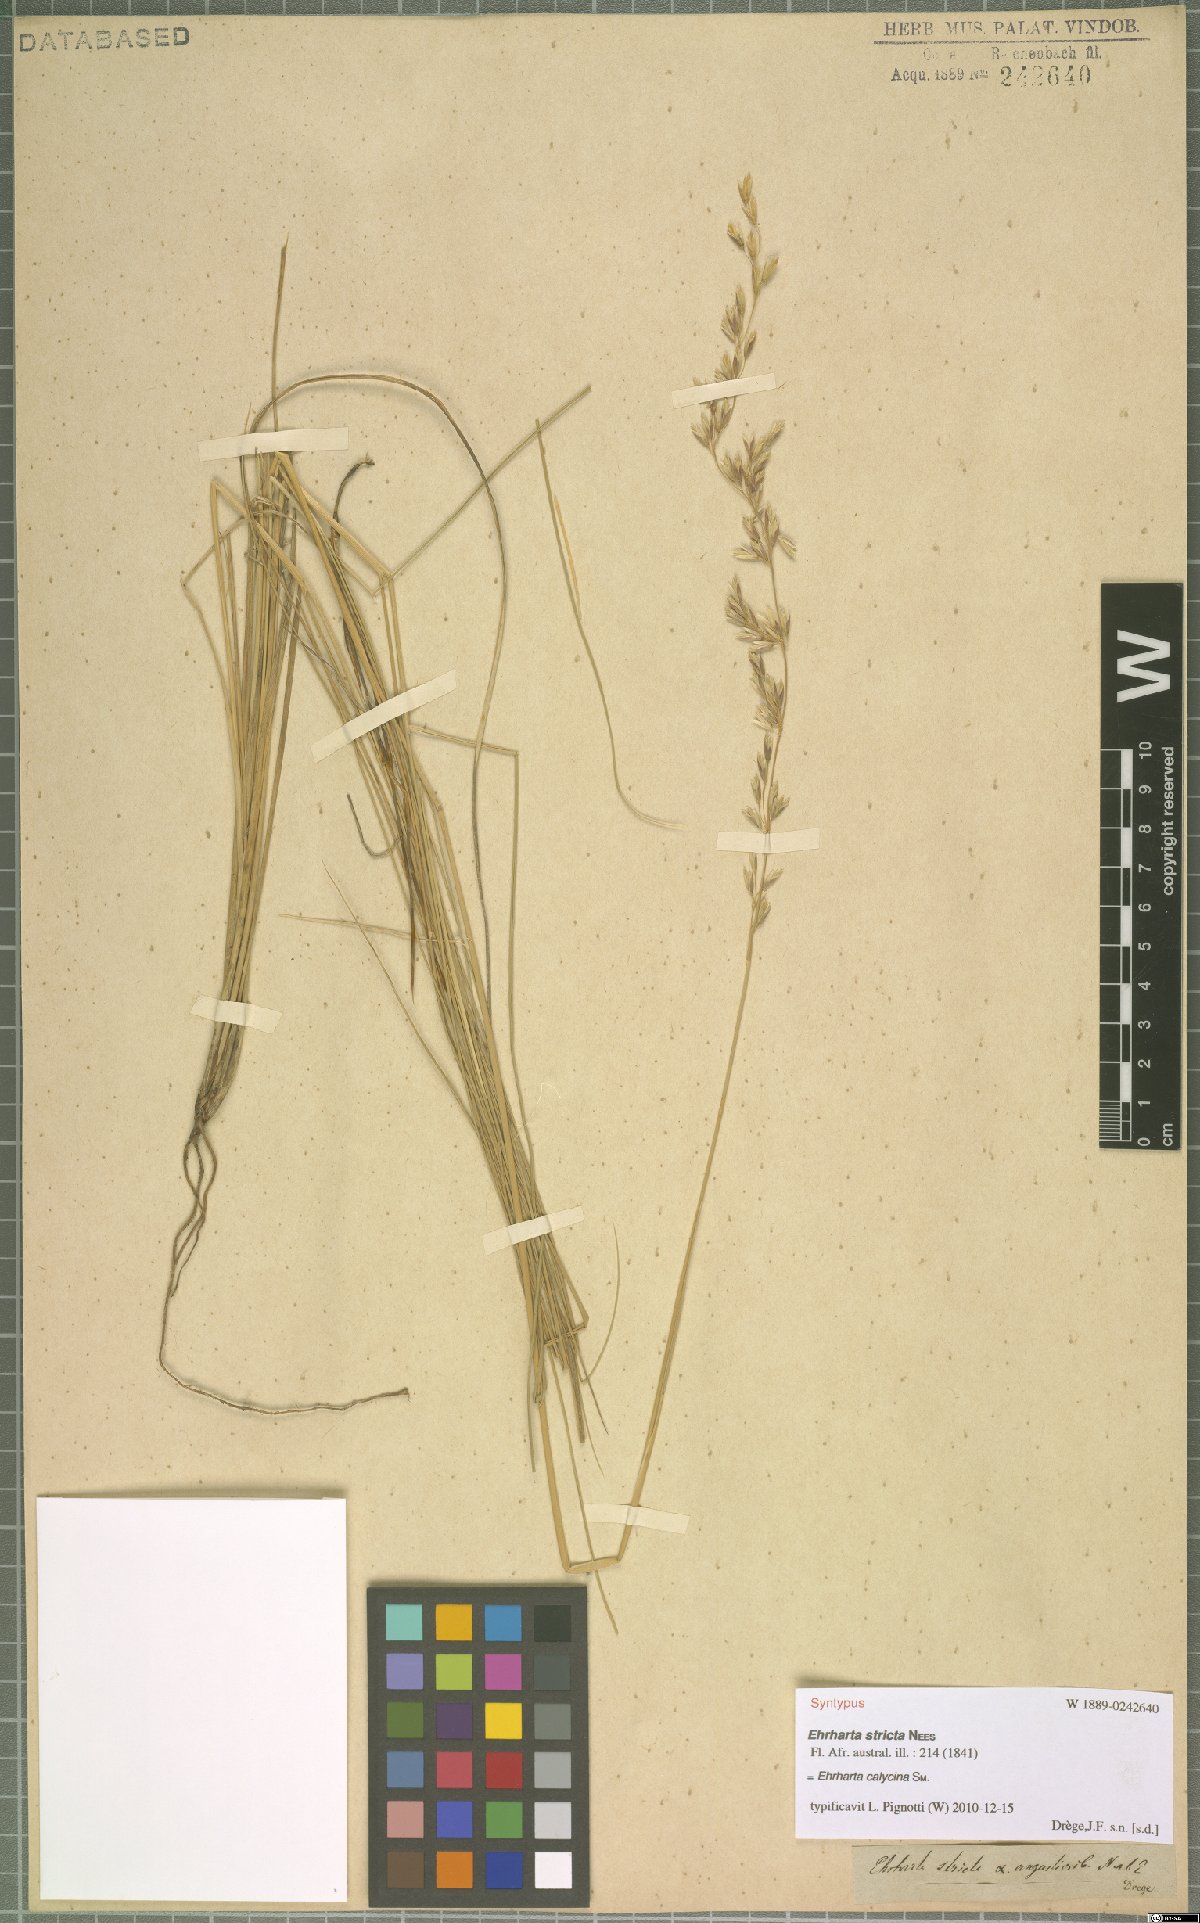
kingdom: Plantae
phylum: Tracheophyta
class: Liliopsida
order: Poales
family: Poaceae
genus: Ehrharta
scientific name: Ehrharta calycina
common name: Perennial veldtgrass
